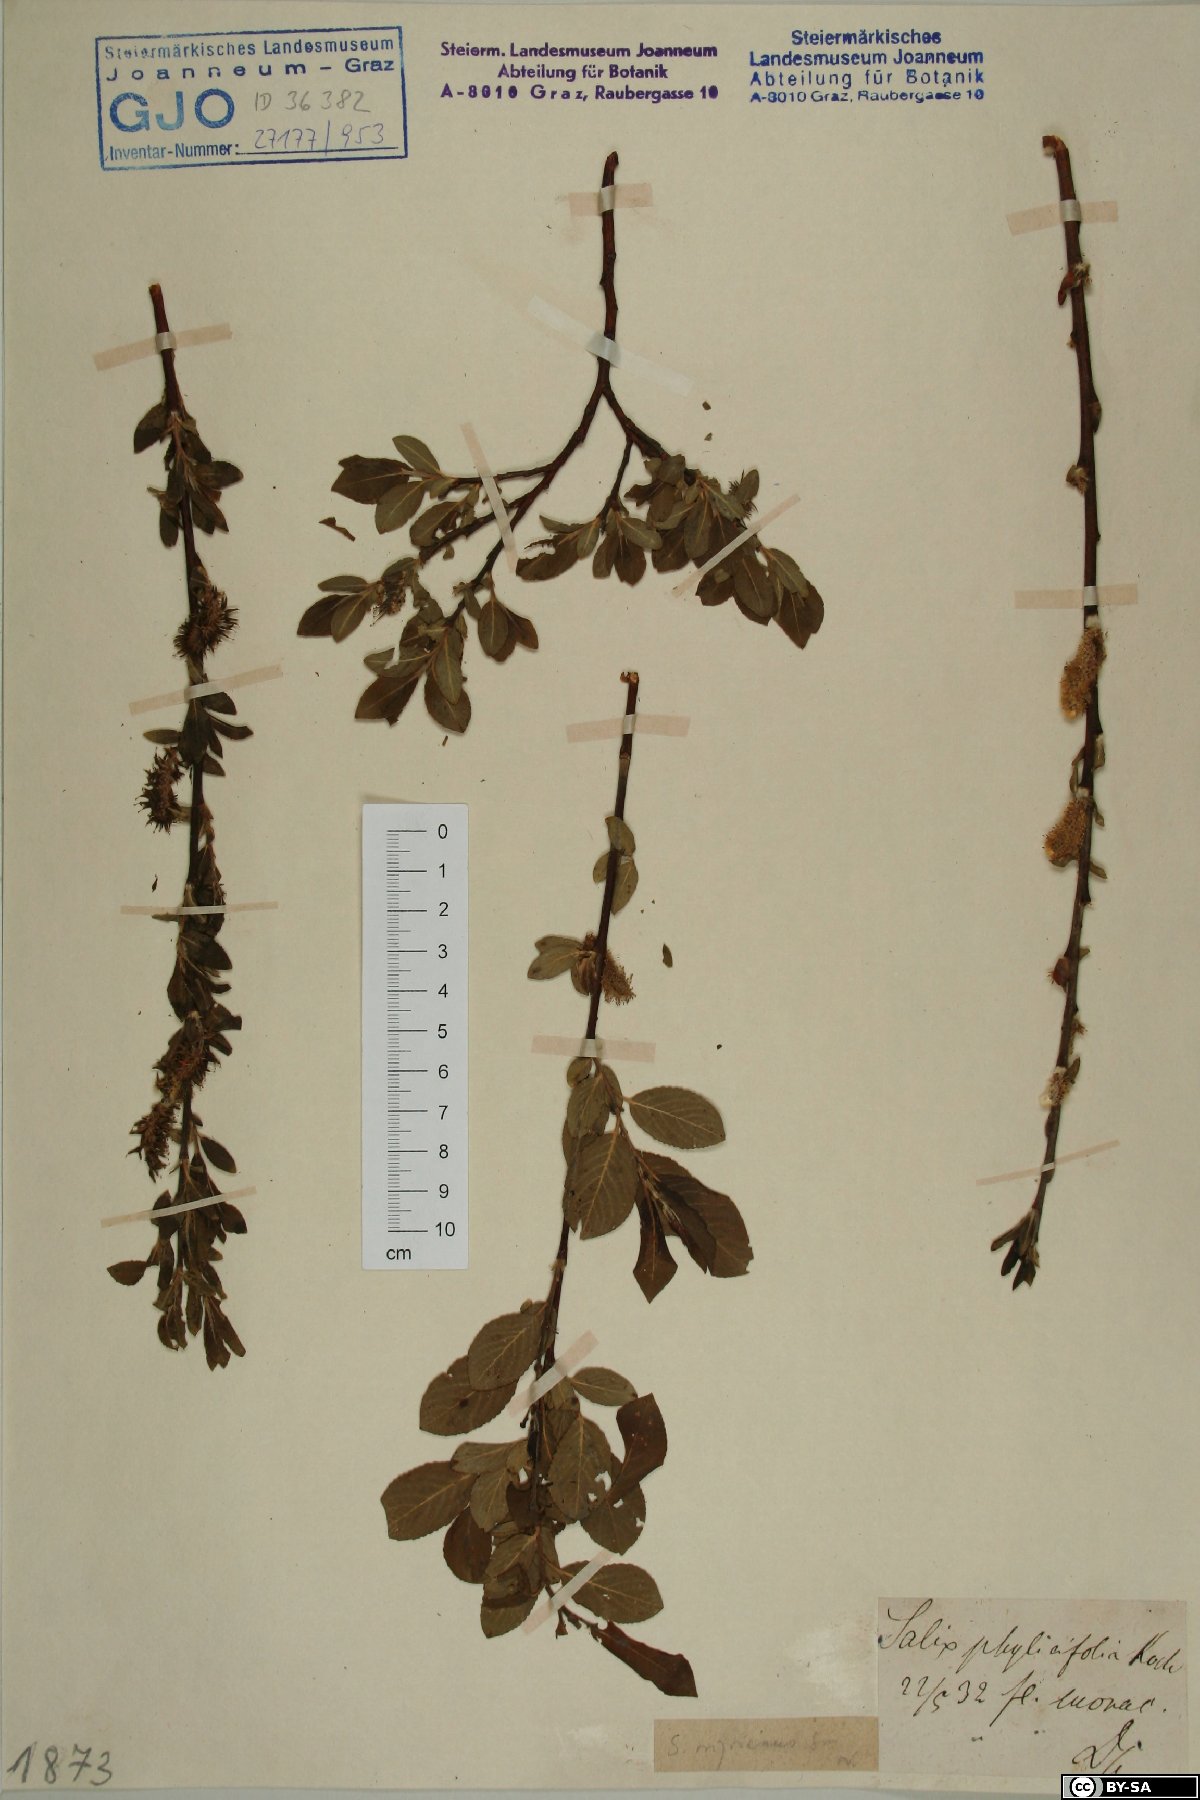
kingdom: Plantae
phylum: Tracheophyta
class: Magnoliopsida
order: Malpighiales
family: Salicaceae
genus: Salix
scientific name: Salix myrsinifolia
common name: Dark-leaved willow
